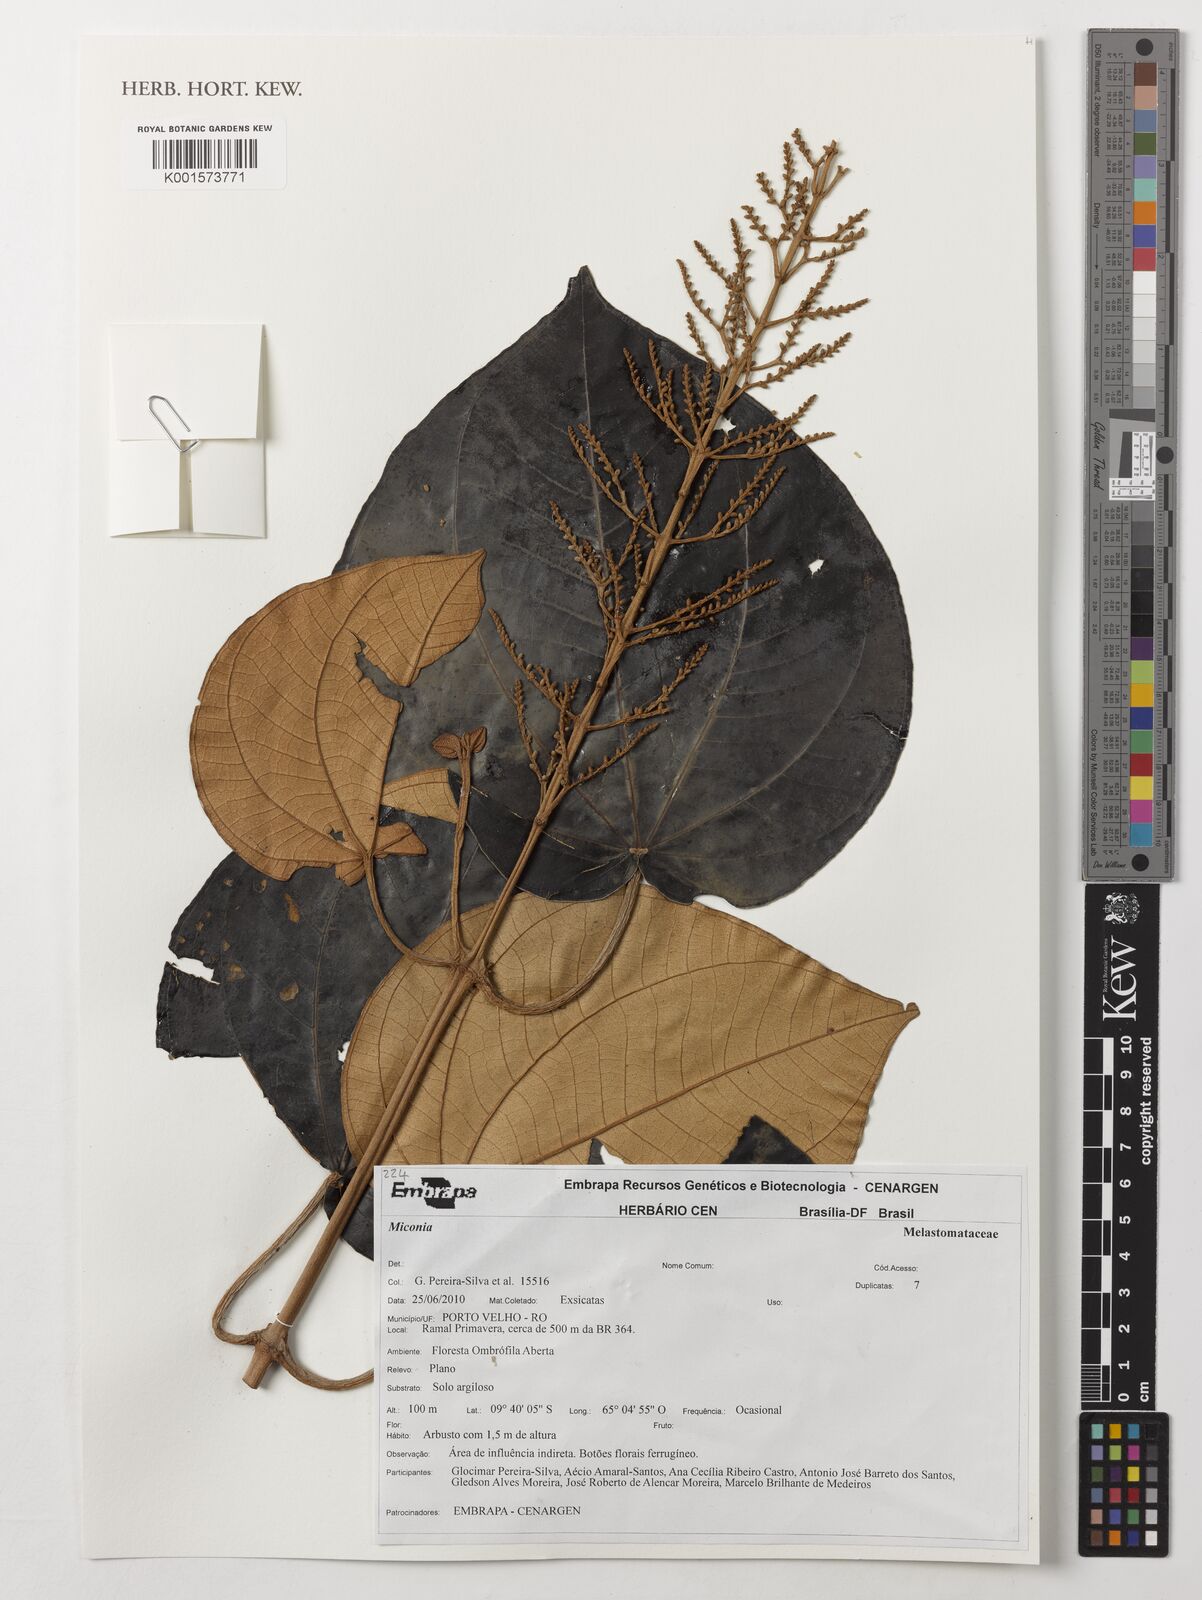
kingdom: Plantae
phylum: Tracheophyta
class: Magnoliopsida
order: Myrtales
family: Melastomataceae
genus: Miconia
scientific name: Miconia
